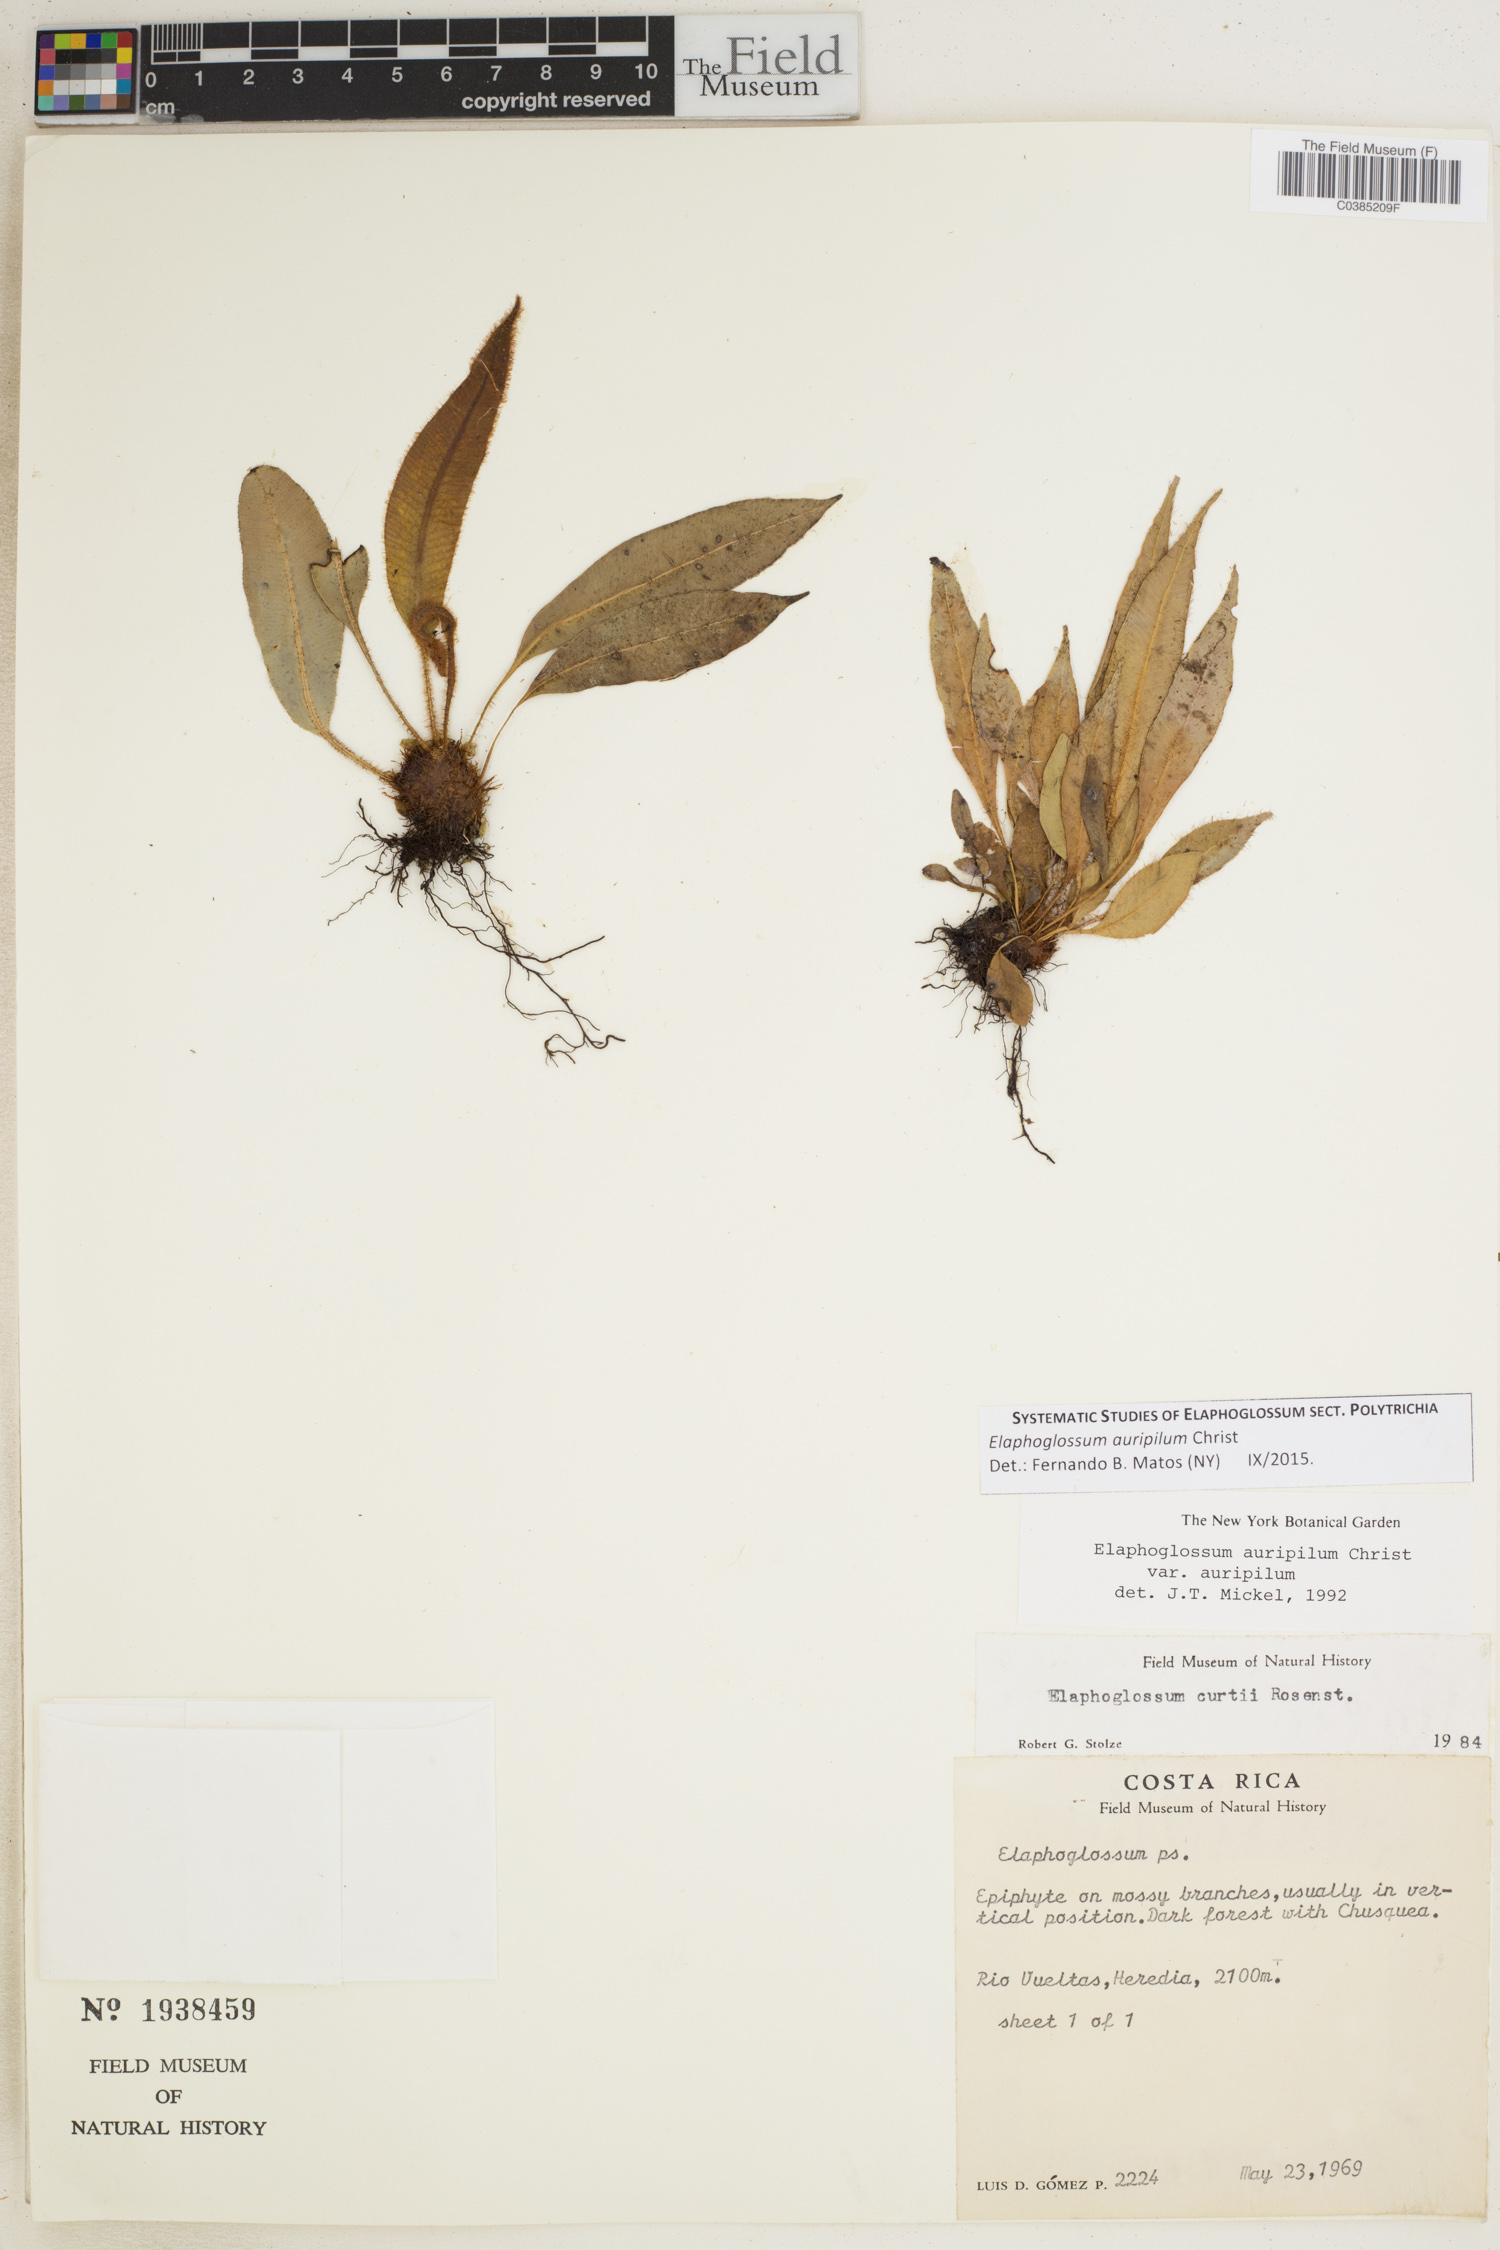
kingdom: Plantae
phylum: Tracheophyta
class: Polypodiopsida
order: Polypodiales
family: Dryopteridaceae
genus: Elaphoglossum
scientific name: Elaphoglossum auripilum
